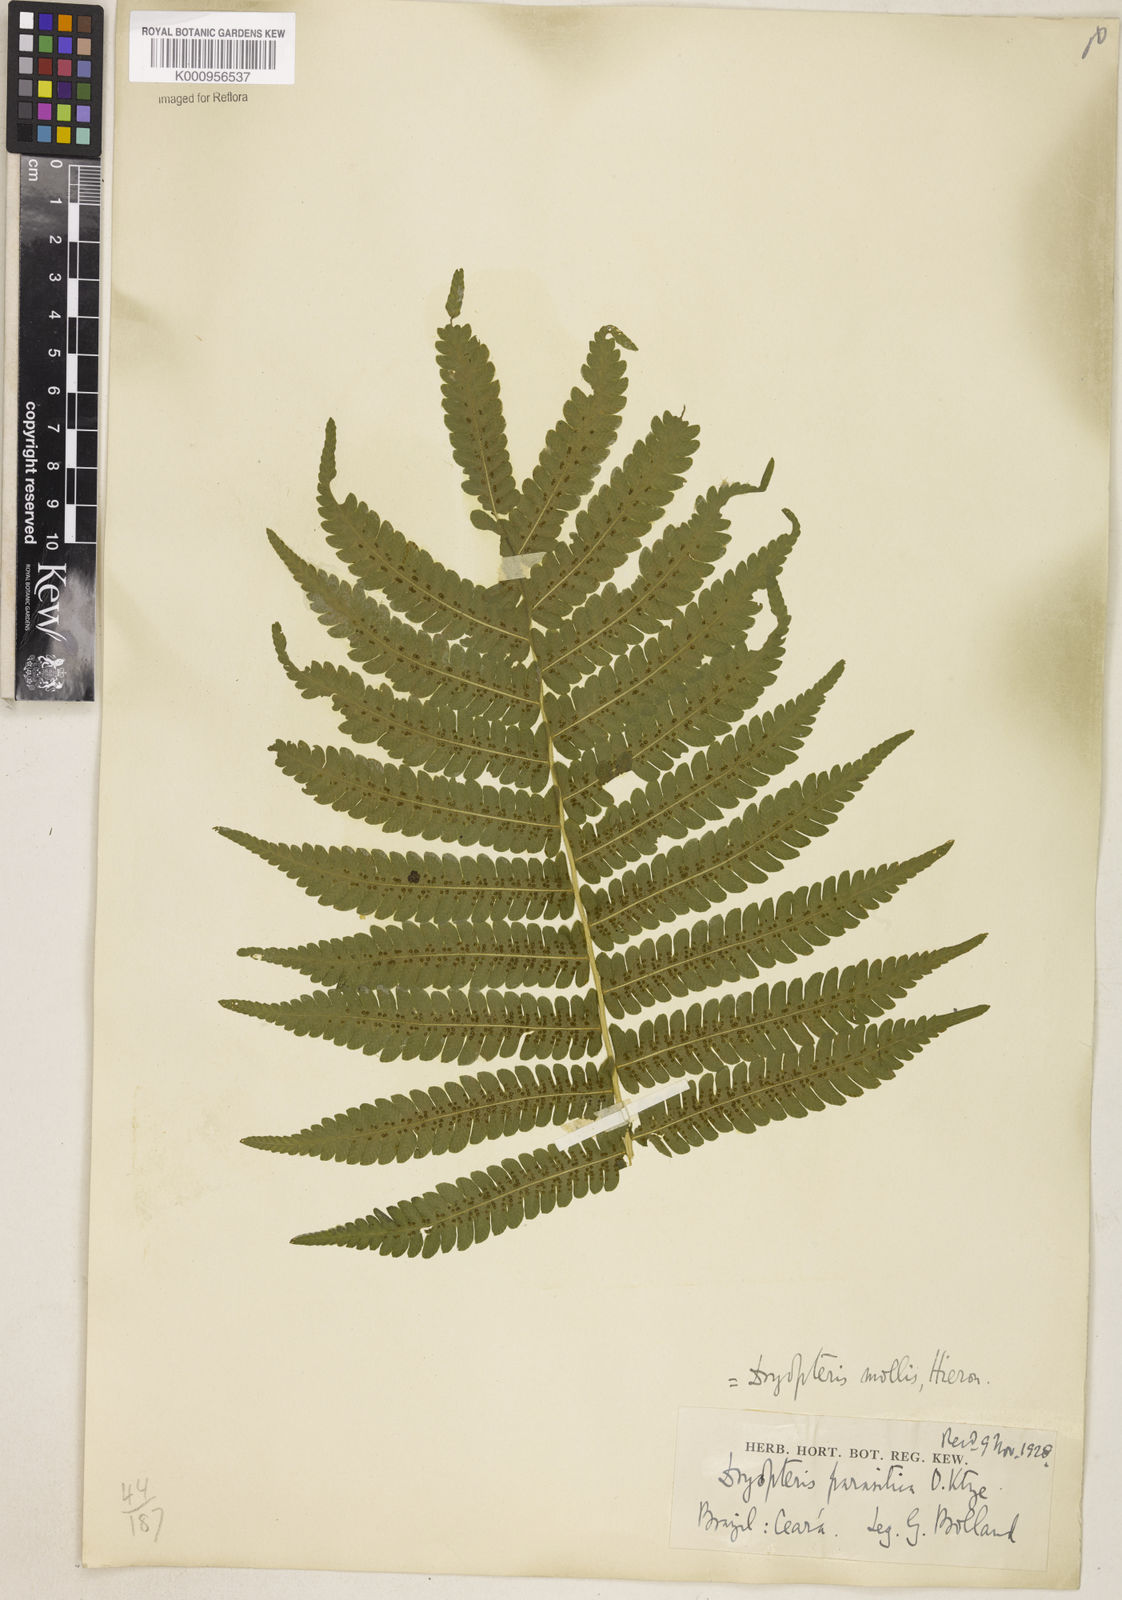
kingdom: Plantae
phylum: Tracheophyta
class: Polypodiopsida
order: Polypodiales
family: Thelypteridaceae
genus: Christella
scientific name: Christella hispidula
